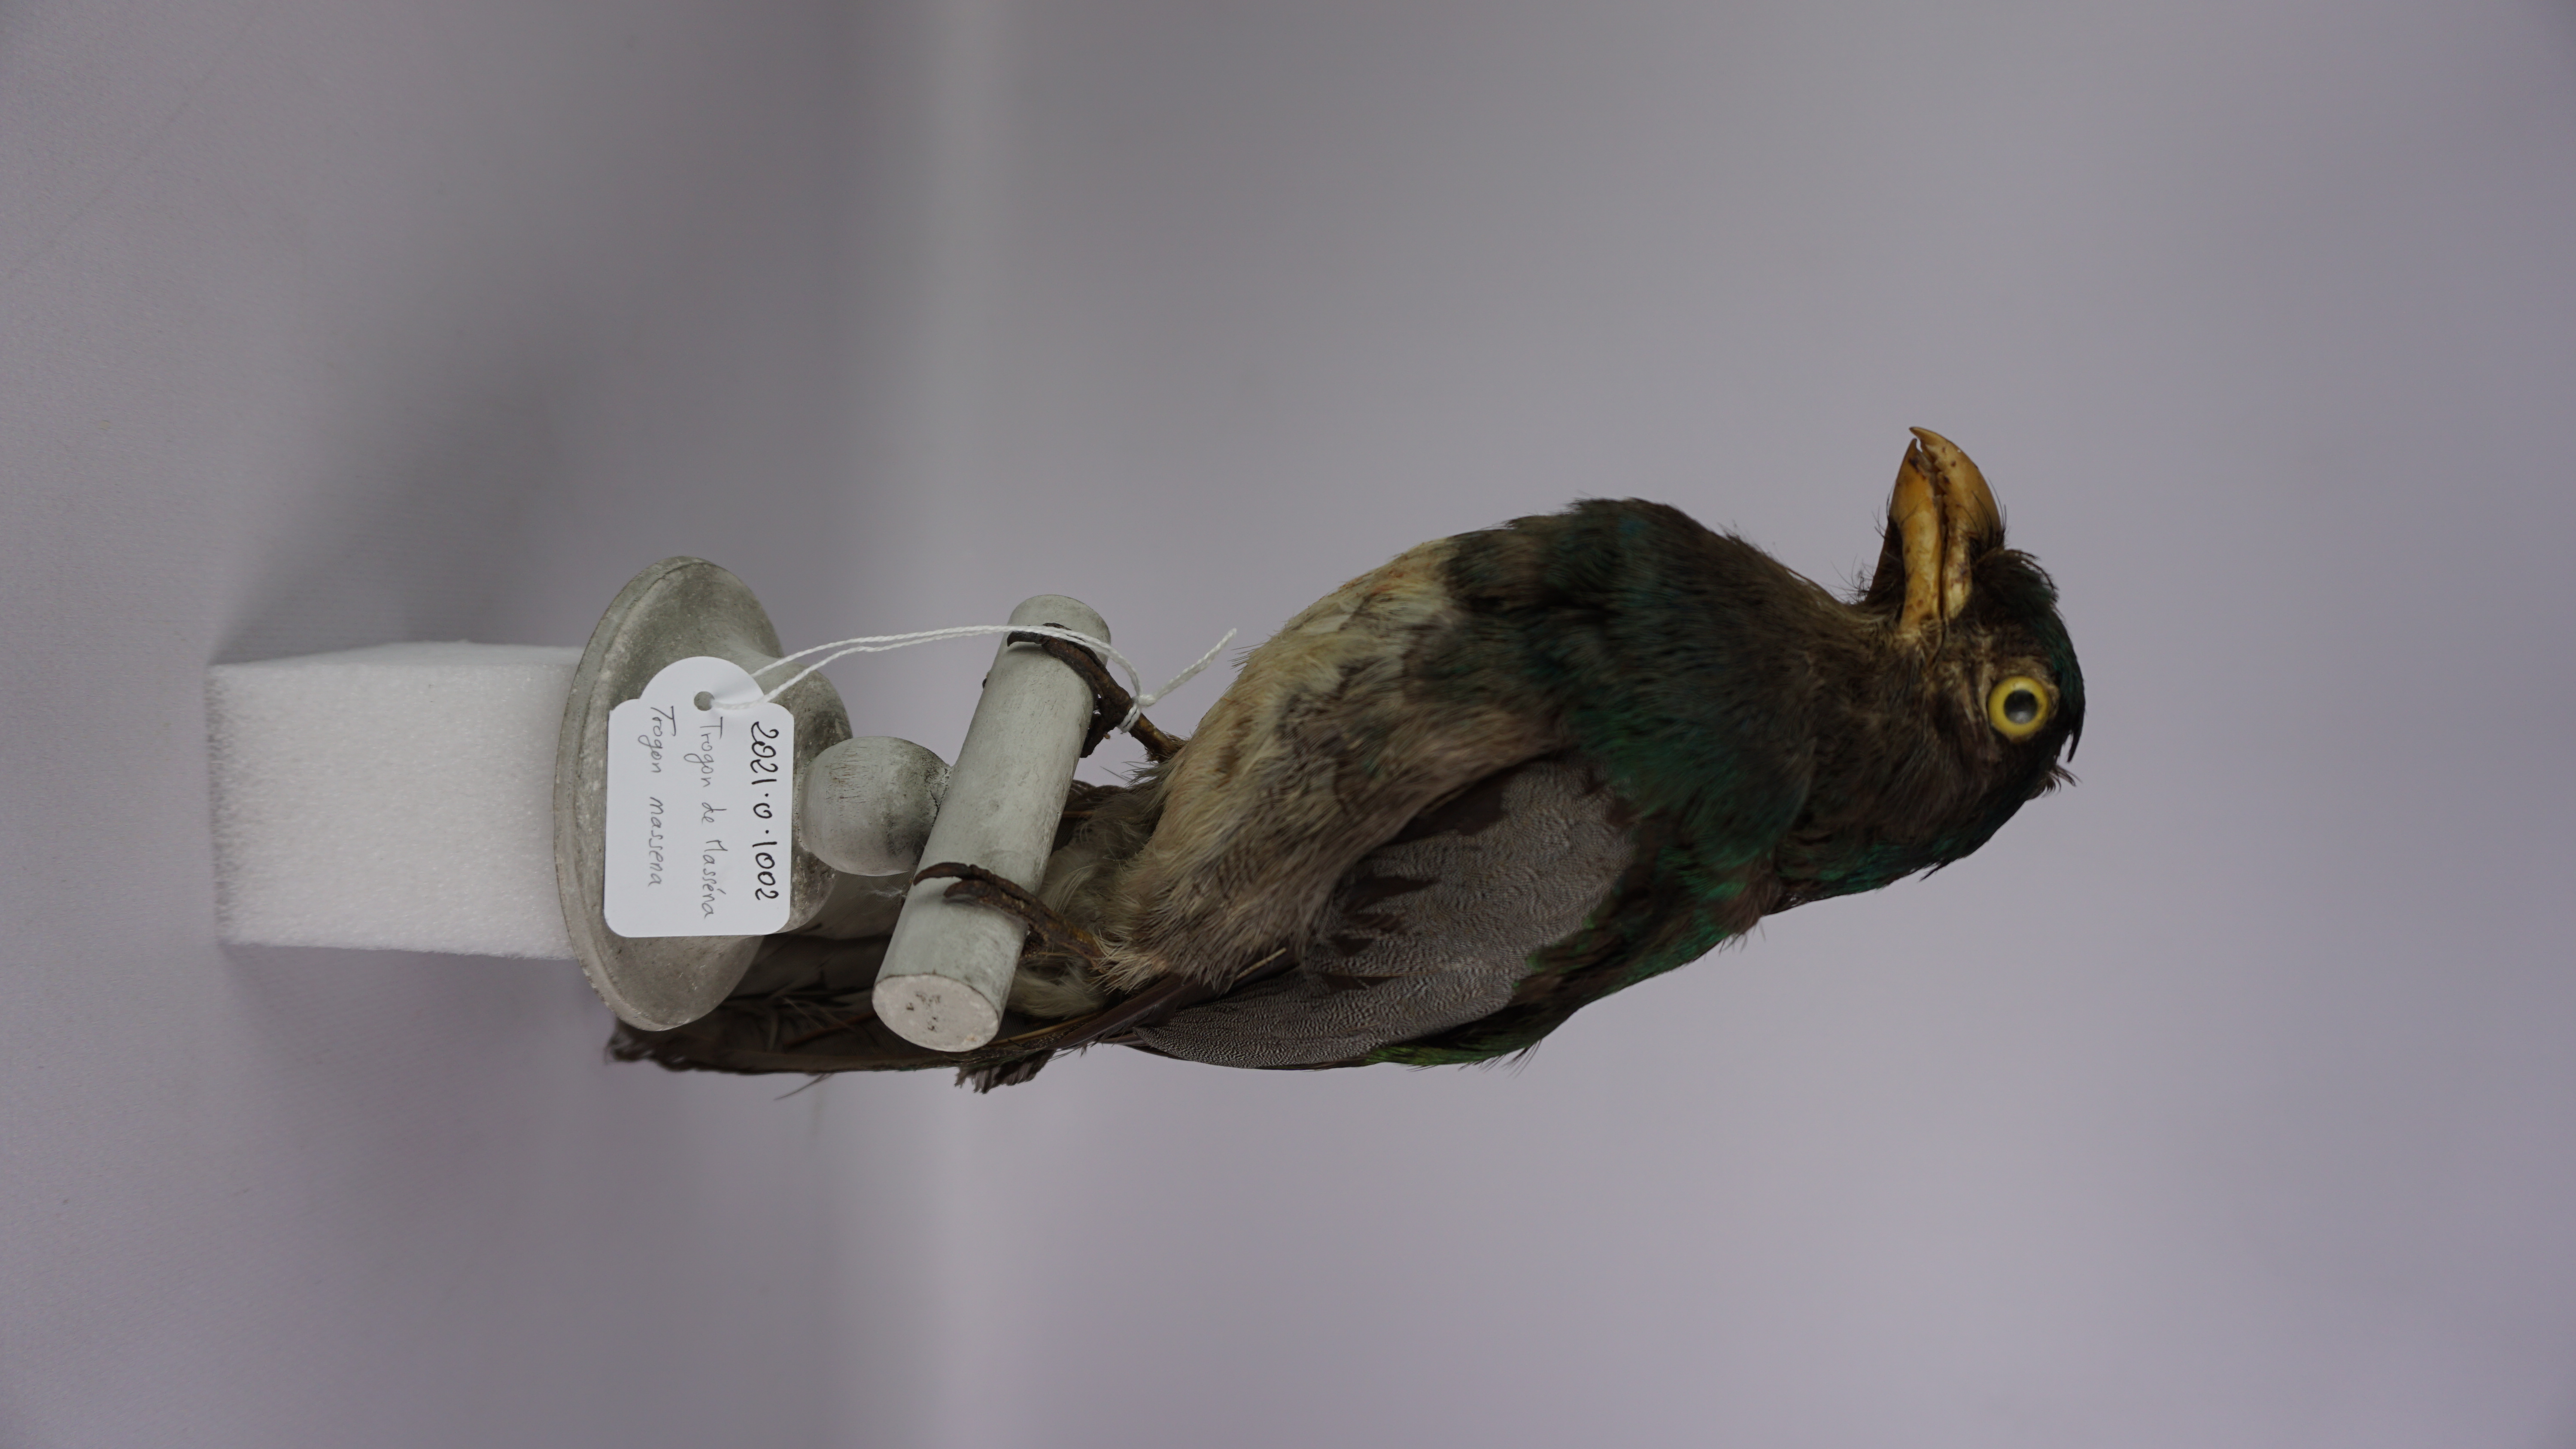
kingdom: Animalia
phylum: Chordata
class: Aves
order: Trogoniformes
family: Trogonidae
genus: Trogon
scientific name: Trogon massena
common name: Slaty-tailed trogon
